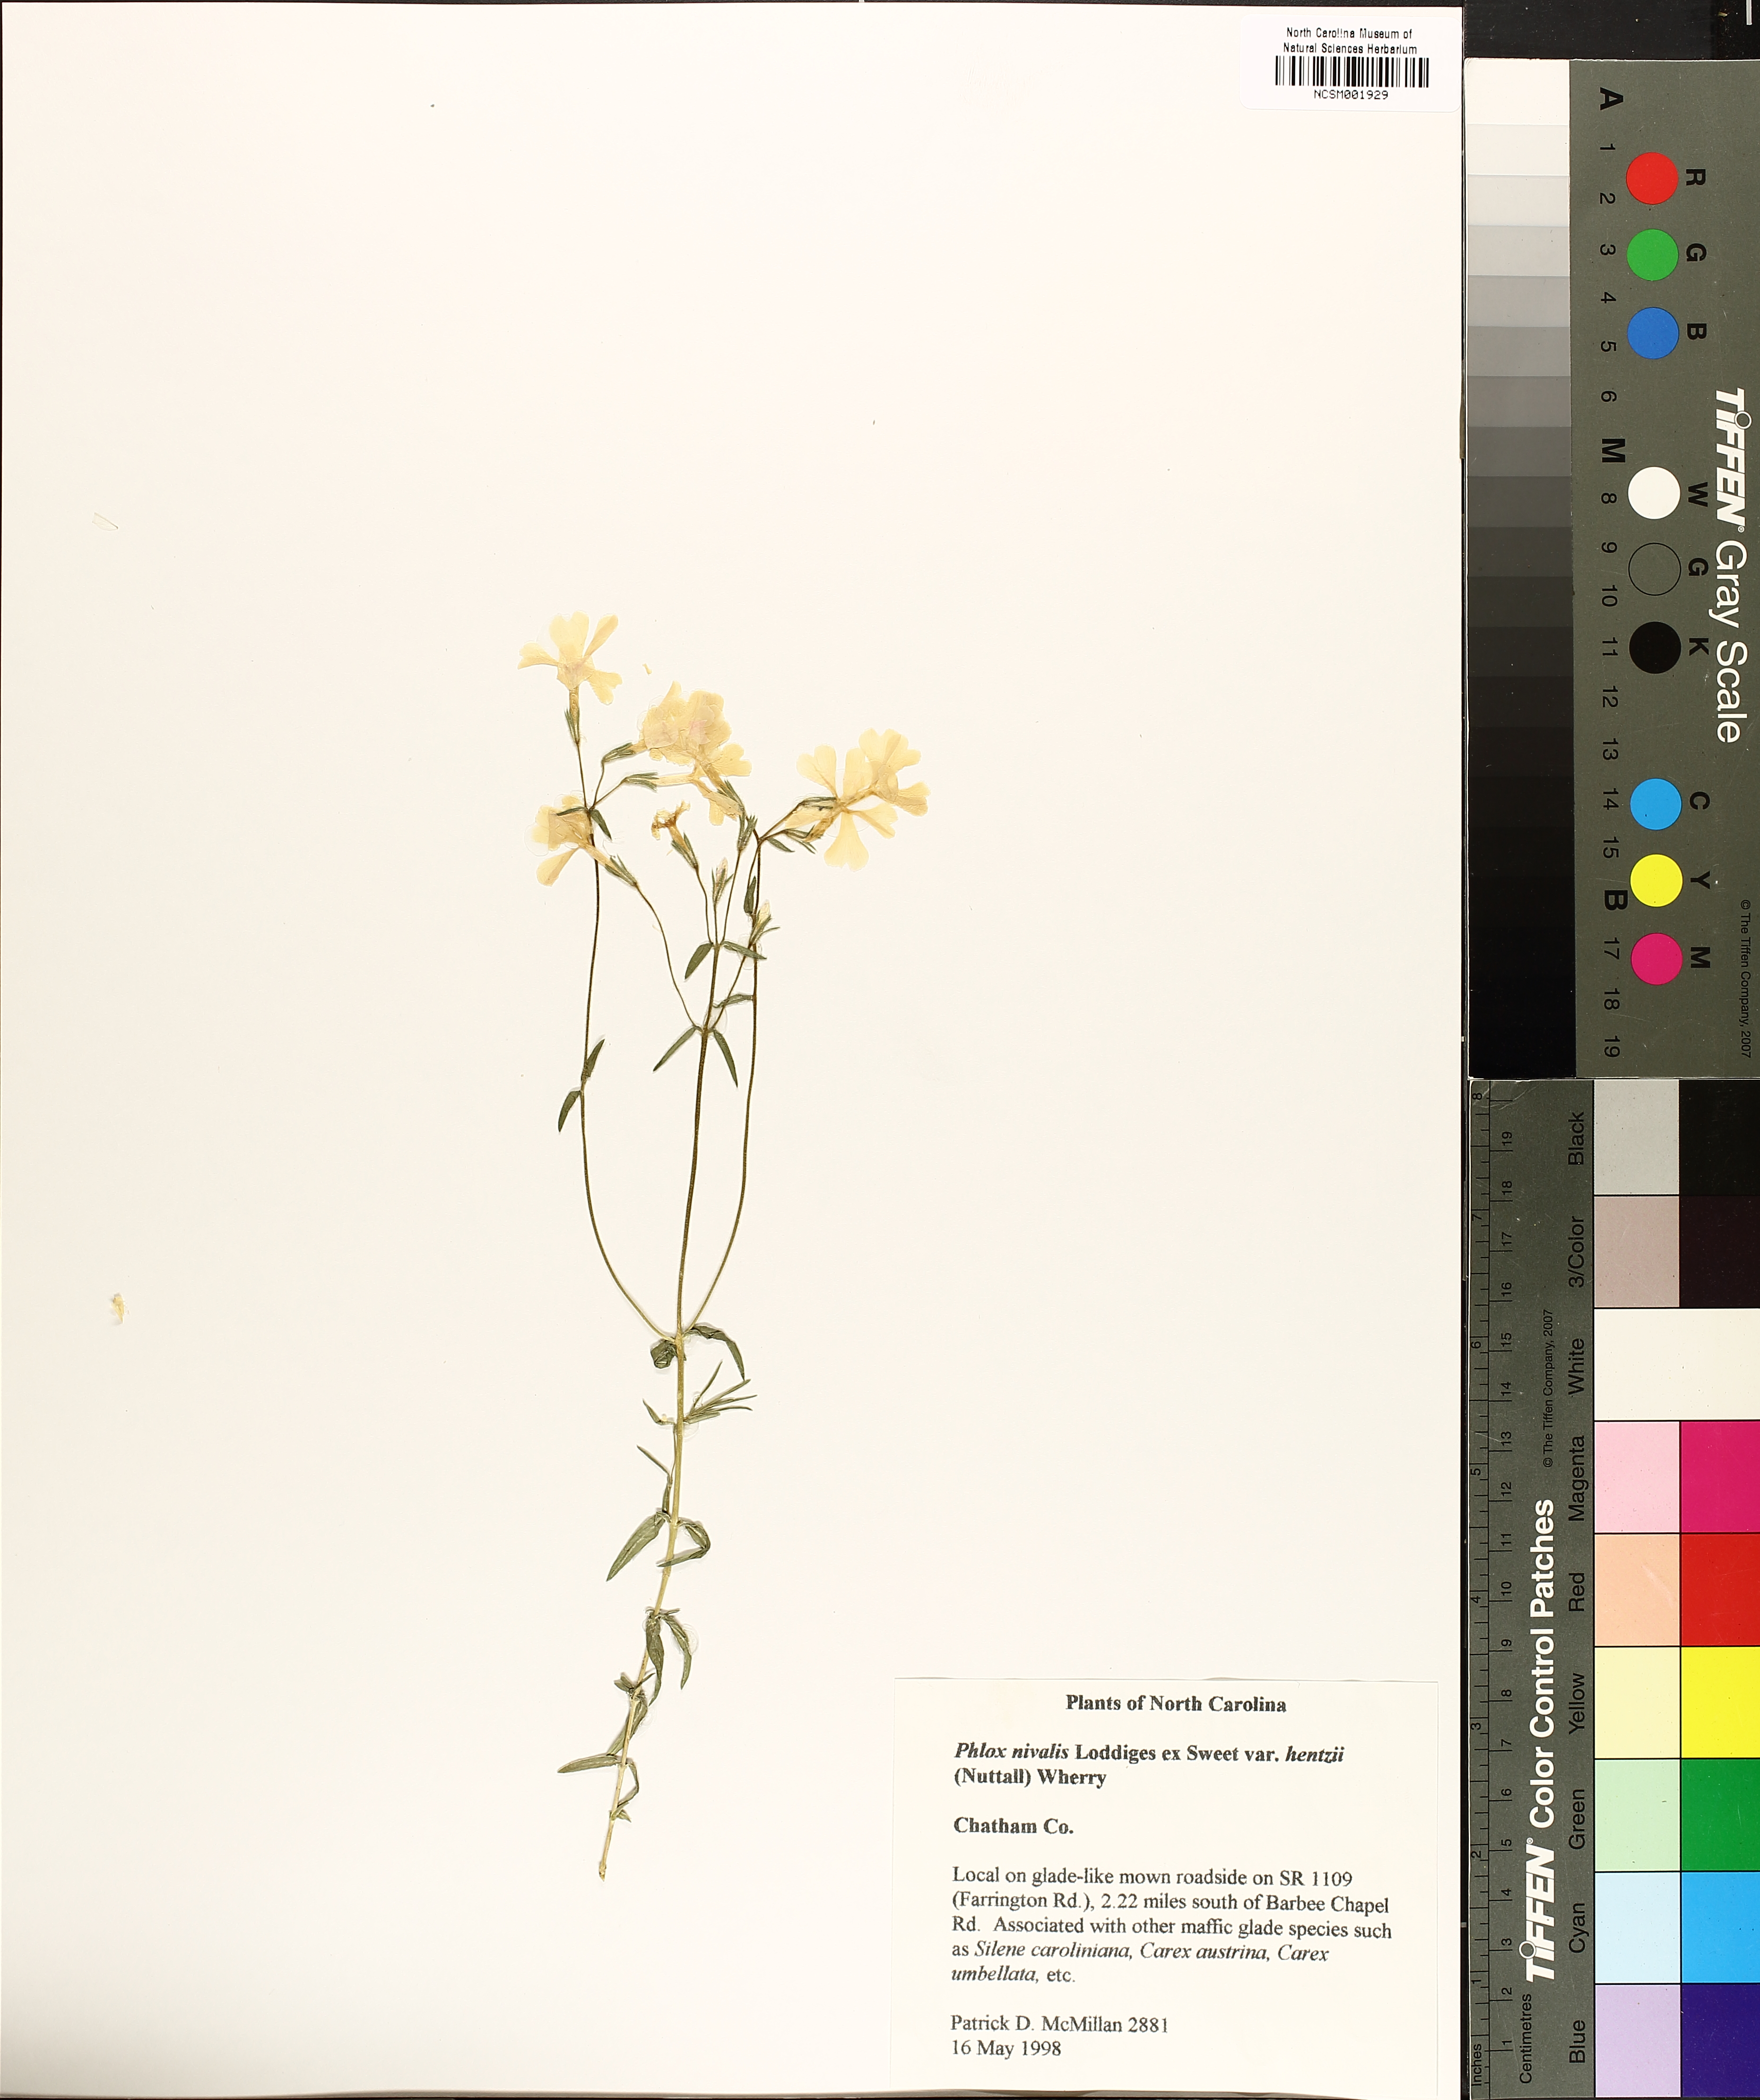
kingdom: Plantae
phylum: Tracheophyta
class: Magnoliopsida
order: Ericales
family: Polemoniaceae
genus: Phlox
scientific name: Phlox nivalis
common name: Trailing phlox
